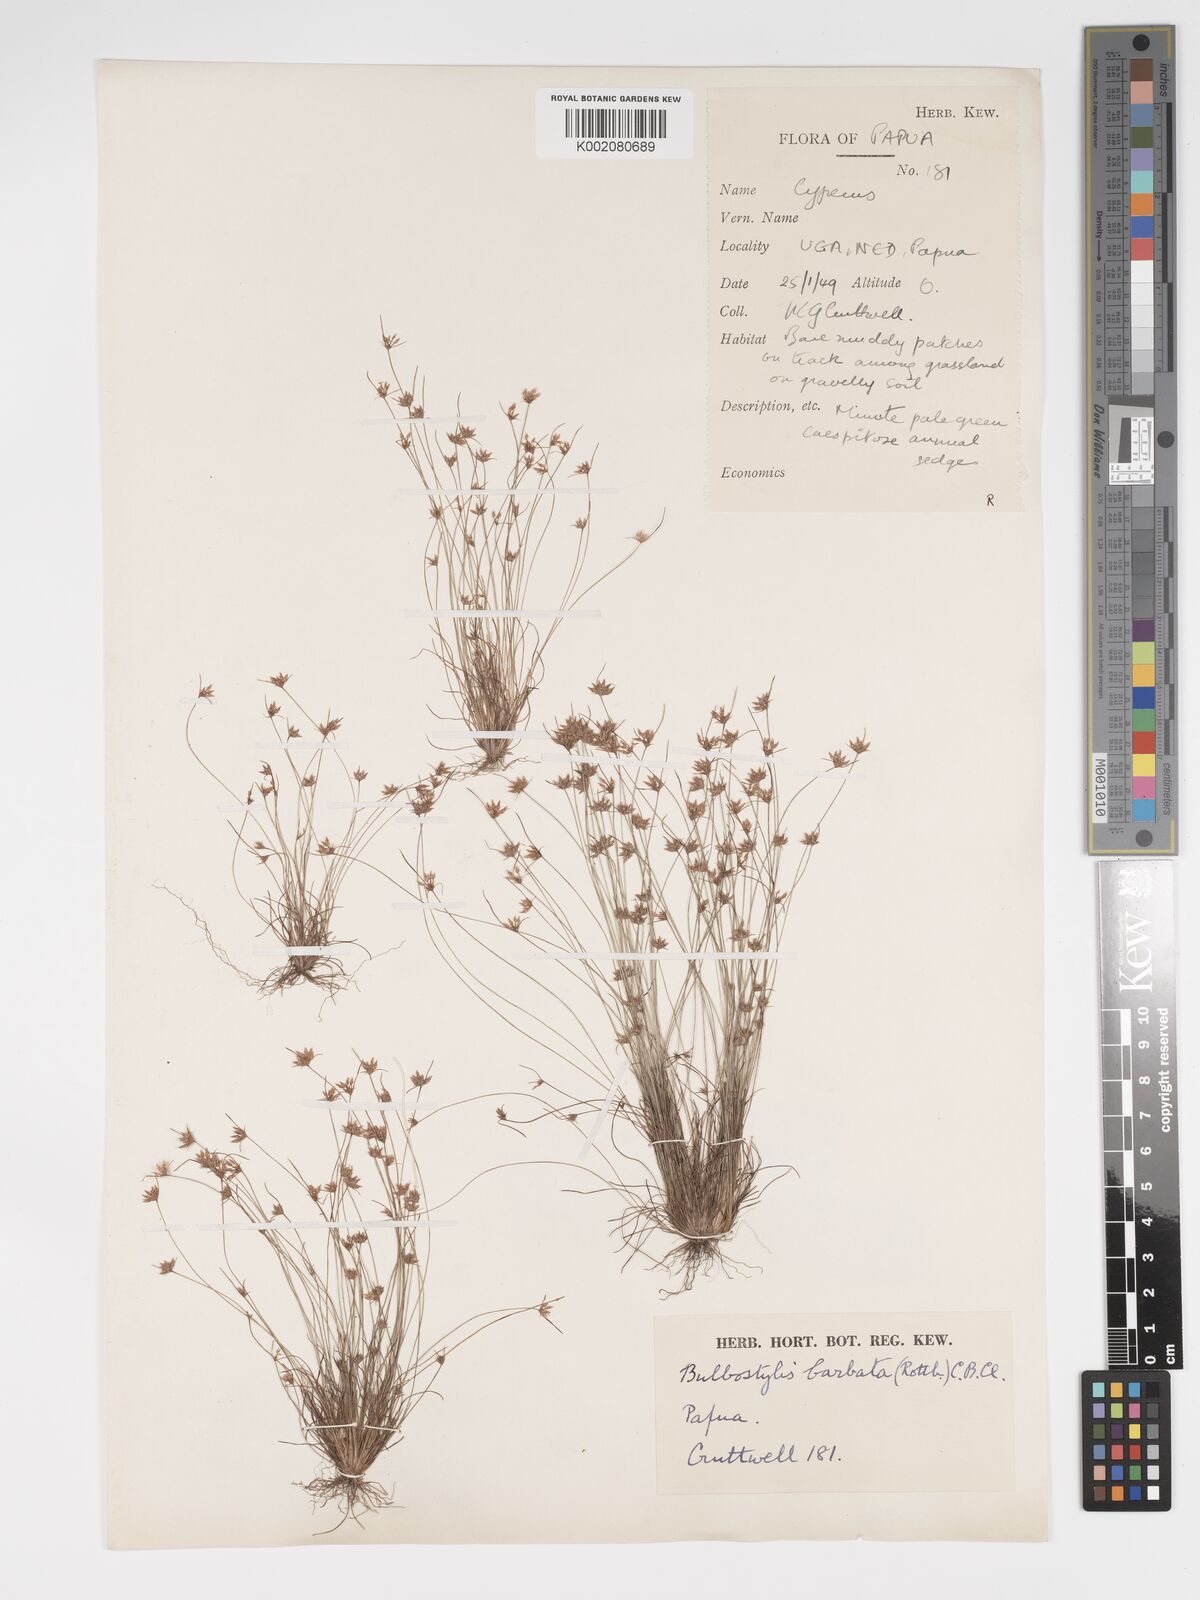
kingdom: Plantae
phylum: Tracheophyta
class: Liliopsida
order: Poales
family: Cyperaceae
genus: Bulbostylis
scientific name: Bulbostylis barbata
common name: Watergrass
